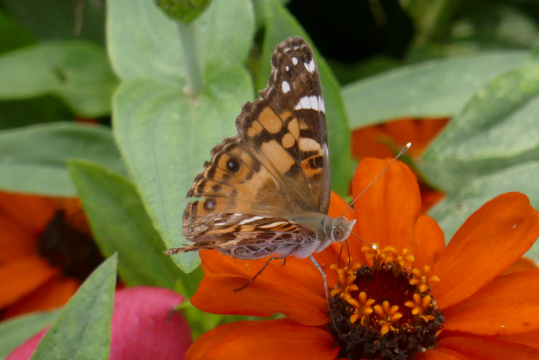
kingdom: Animalia
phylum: Arthropoda
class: Insecta
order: Lepidoptera
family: Nymphalidae
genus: Vanessa
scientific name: Vanessa virginiensis
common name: American Lady
